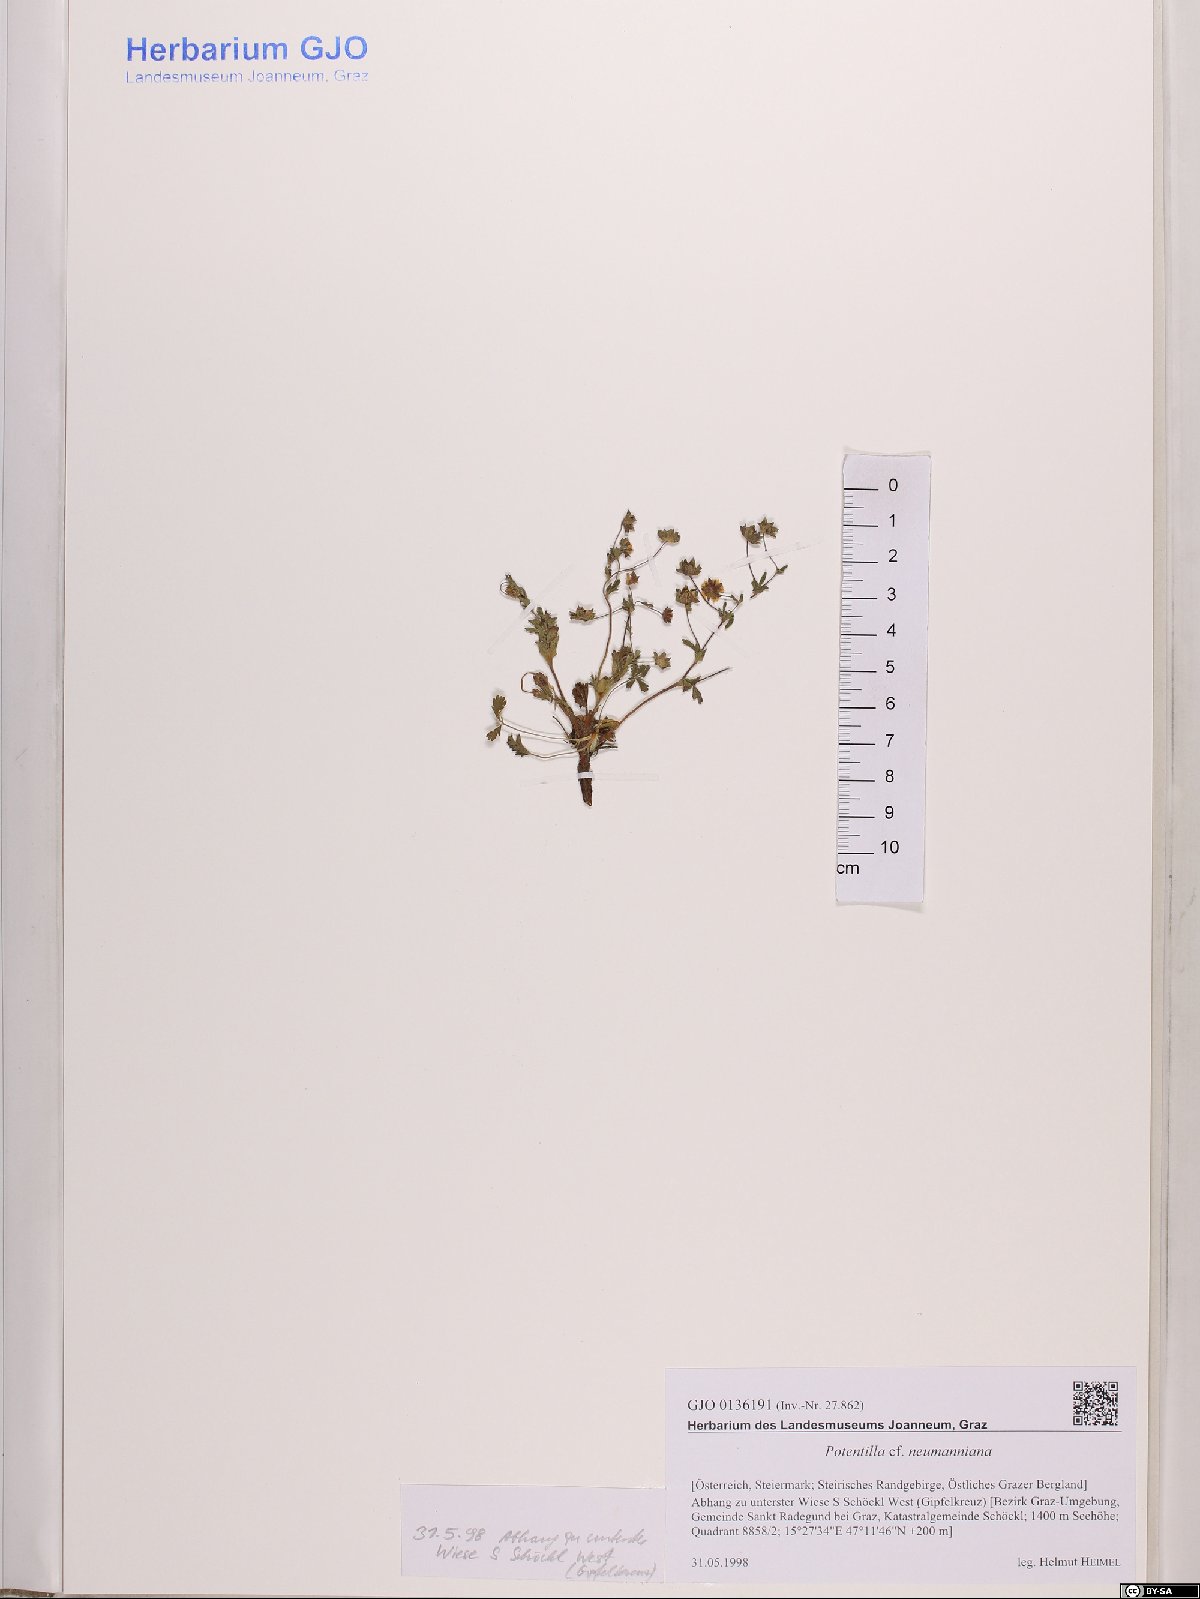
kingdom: Plantae
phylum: Tracheophyta
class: Magnoliopsida
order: Rosales
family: Rosaceae
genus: Potentilla
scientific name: Potentilla verna
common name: Spring cinquefoil
